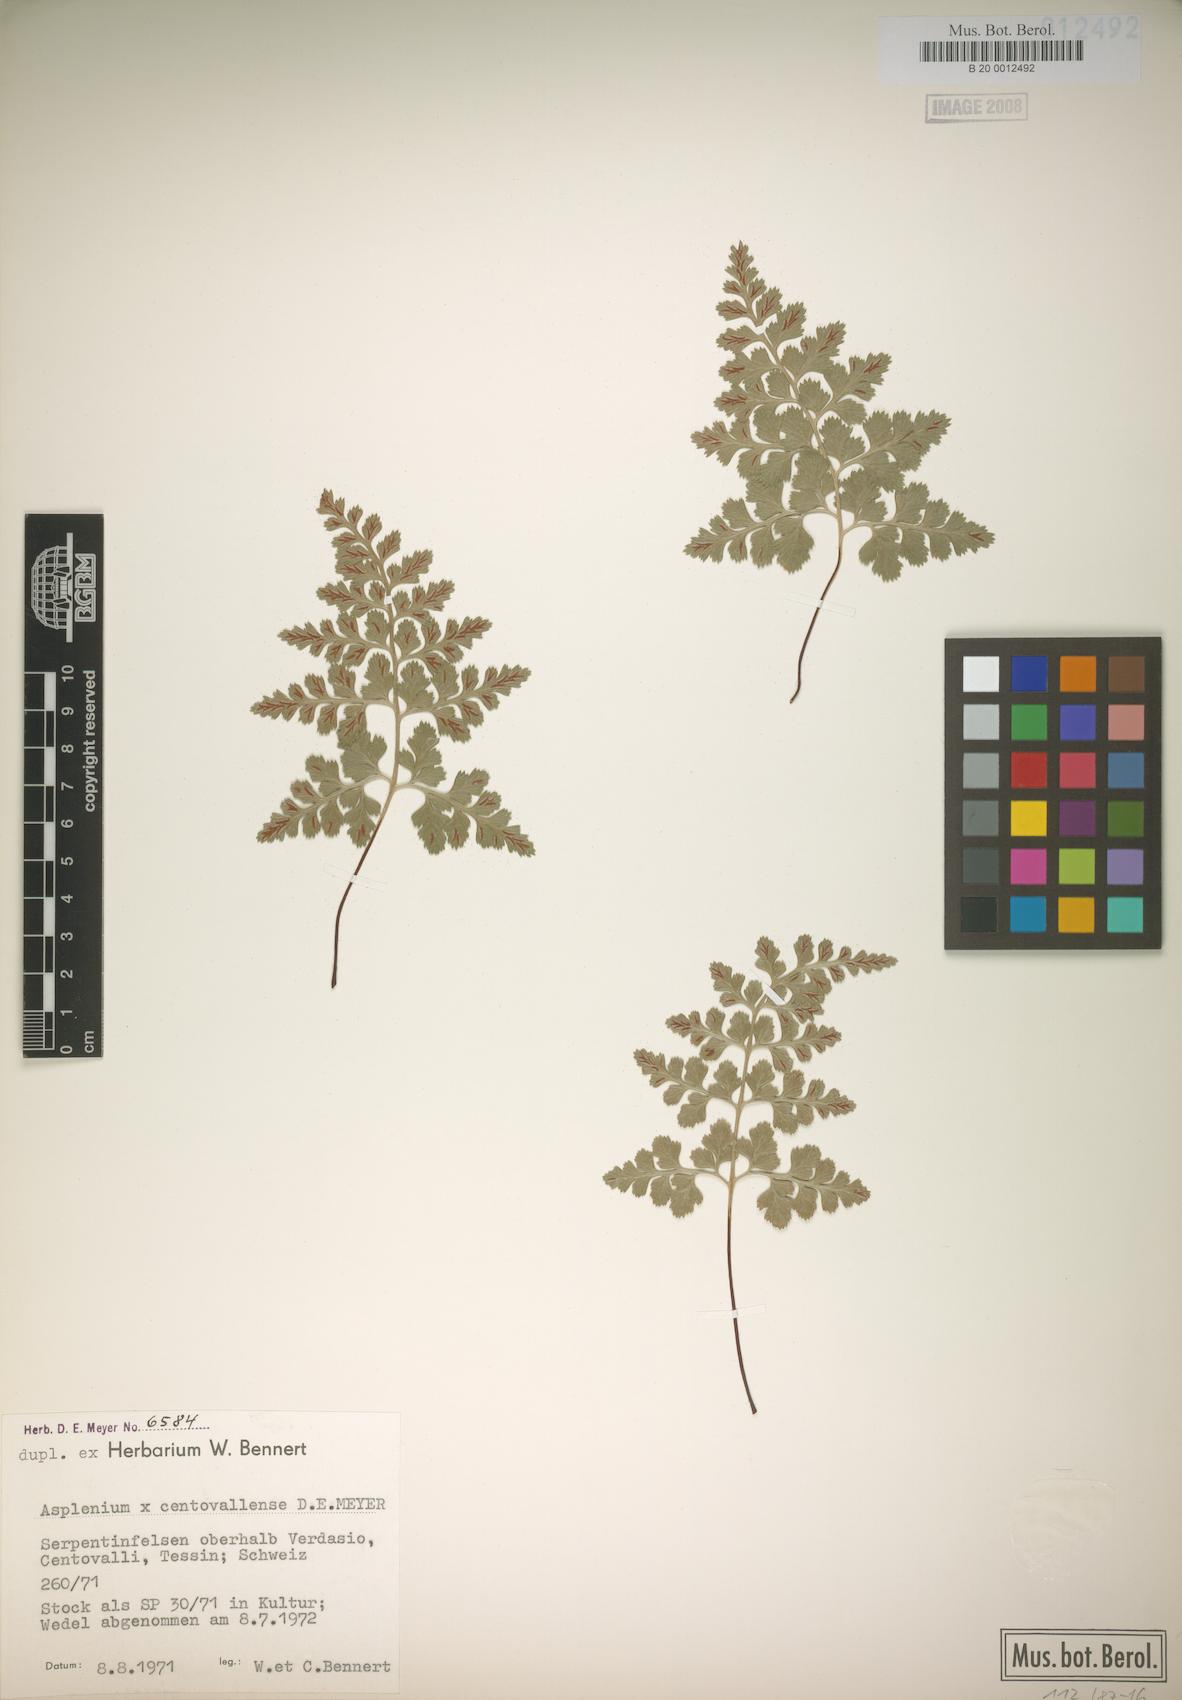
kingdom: Plantae
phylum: Tracheophyta
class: Polypodiopsida
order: Polypodiales
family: Aspleniaceae
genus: Asplenium
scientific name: Asplenium centovallense
